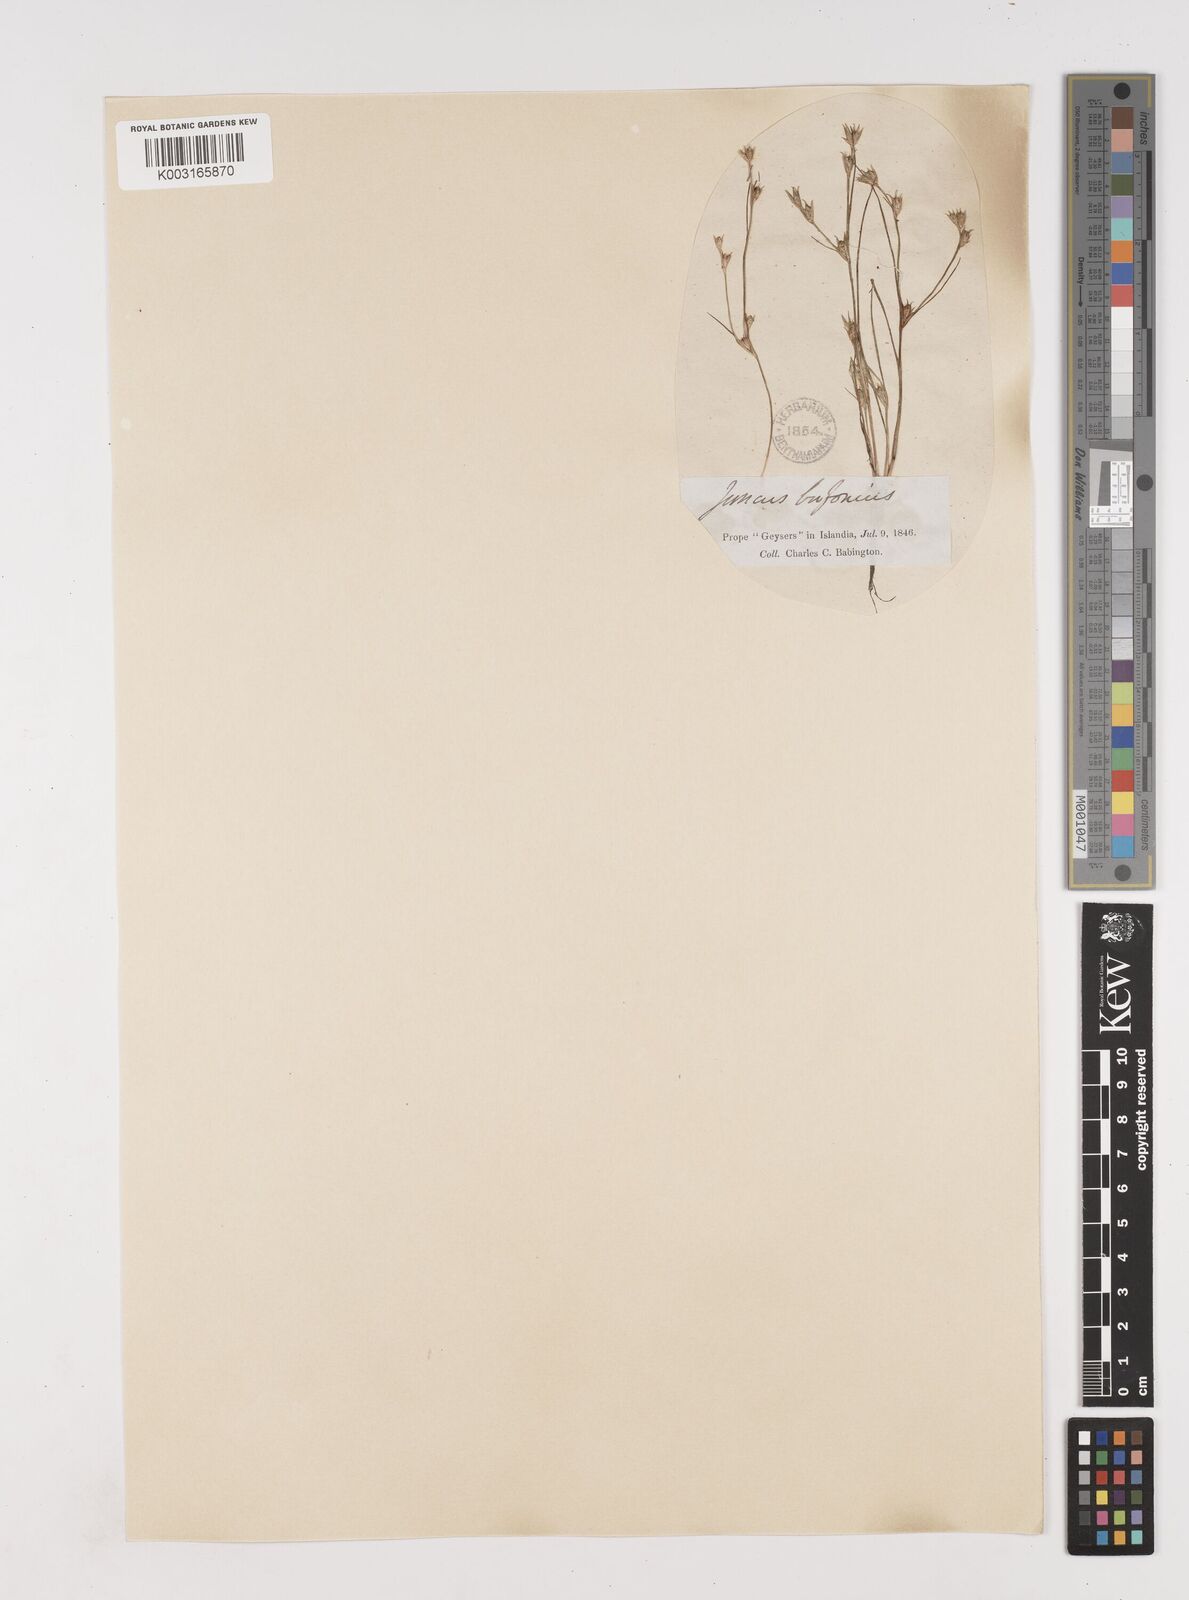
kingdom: Plantae
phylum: Tracheophyta
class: Liliopsida
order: Poales
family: Juncaceae
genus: Juncus
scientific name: Juncus bufonius
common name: Toad rush
